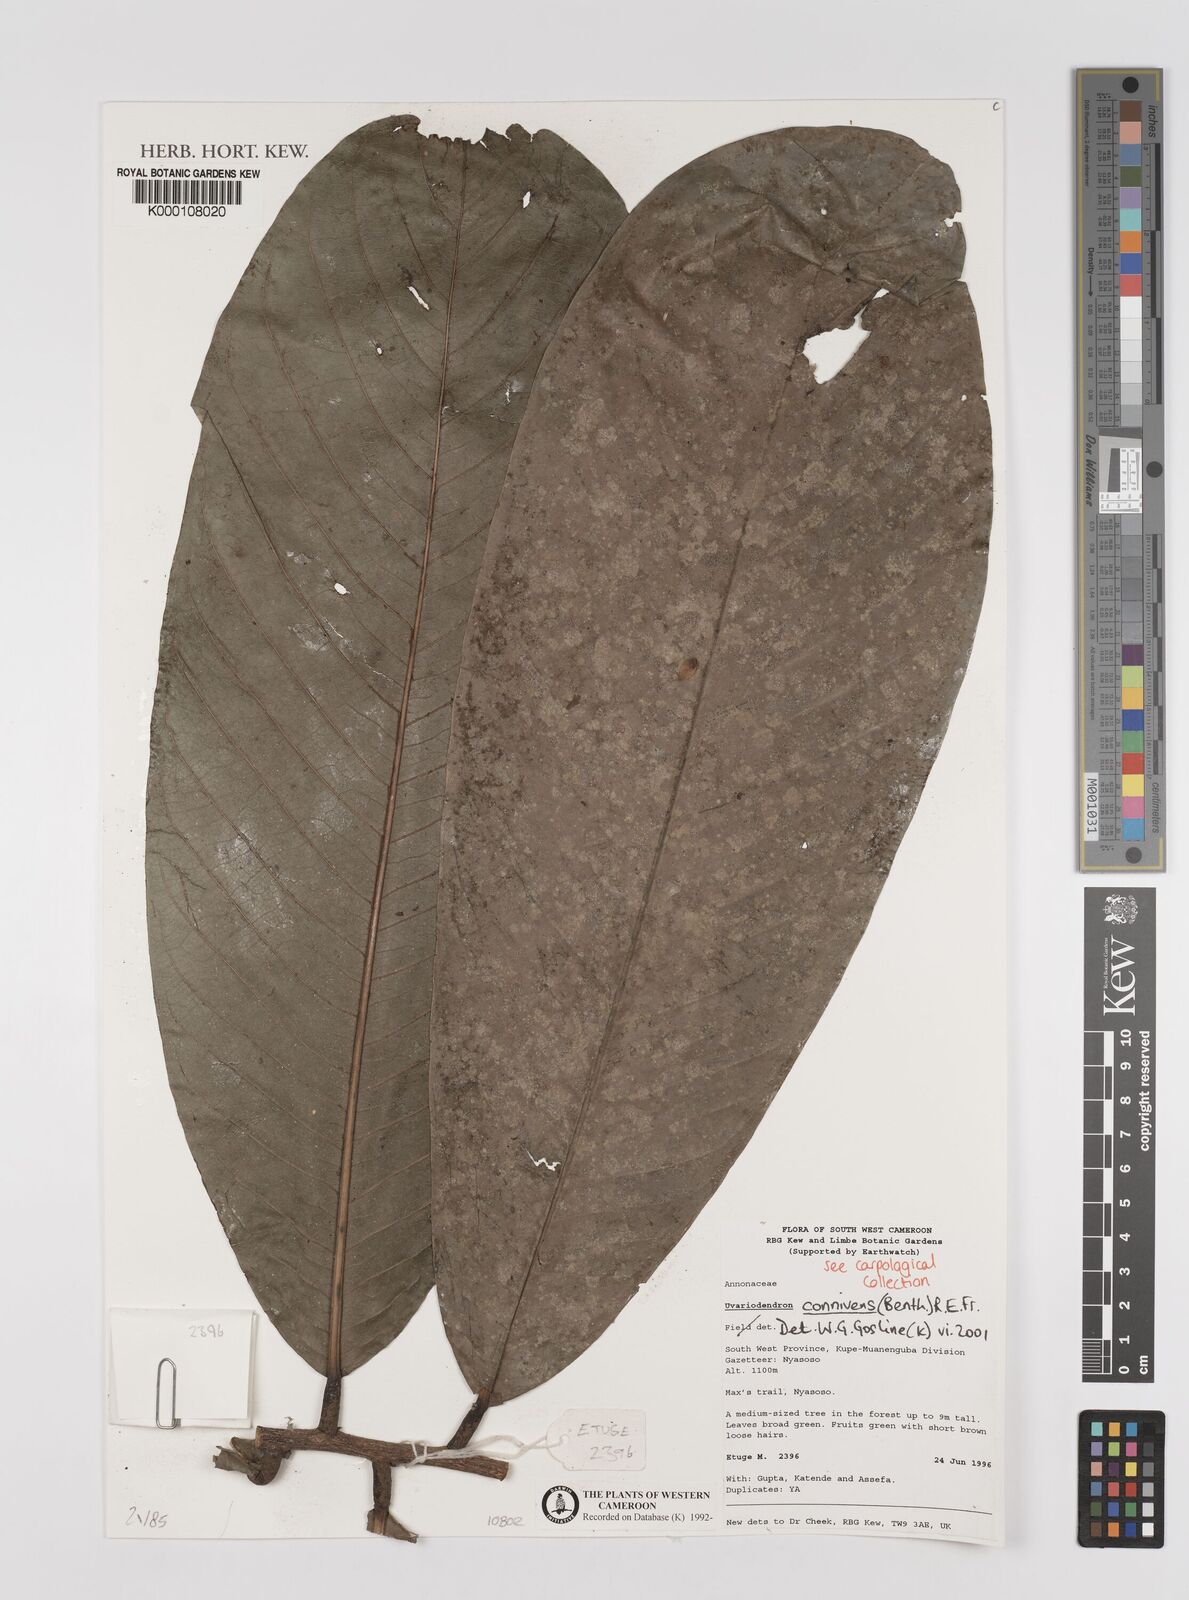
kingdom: Plantae
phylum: Tracheophyta
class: Magnoliopsida
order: Magnoliales
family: Annonaceae
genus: Uvariodendron
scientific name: Uvariodendron connivens
